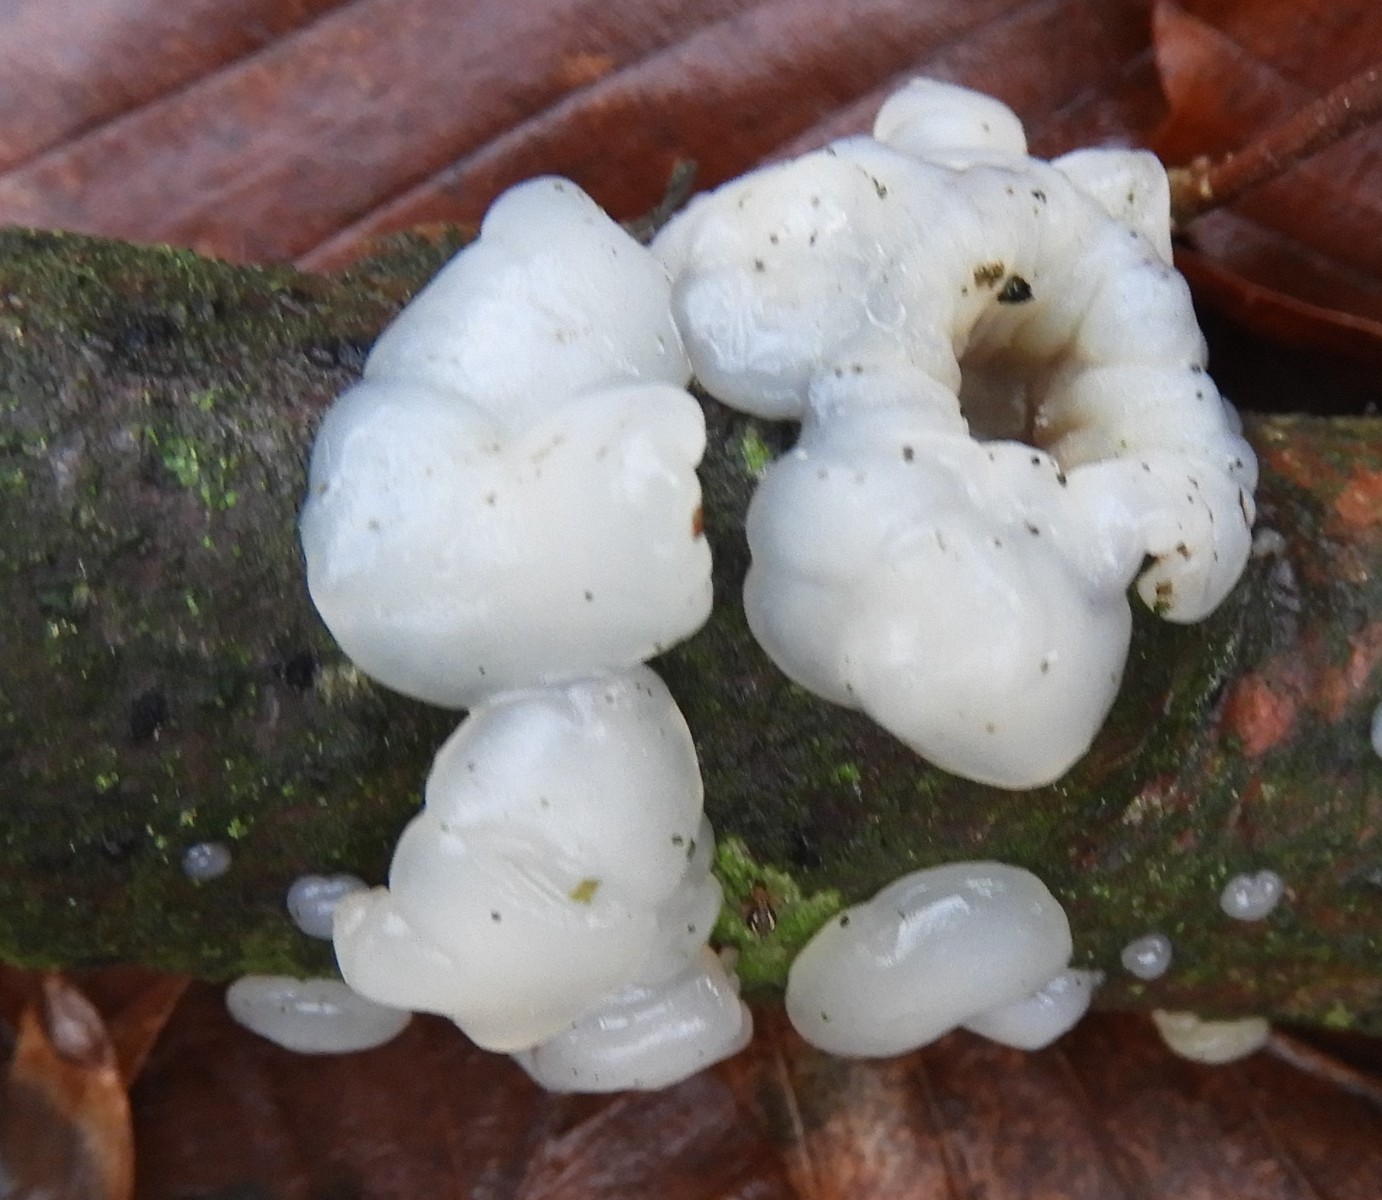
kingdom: Fungi
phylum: Basidiomycota
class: Agaricomycetes
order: Auriculariales
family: Auriculariaceae
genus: Exidia
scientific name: Exidia thuretiana
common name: hvidlig bævretop
